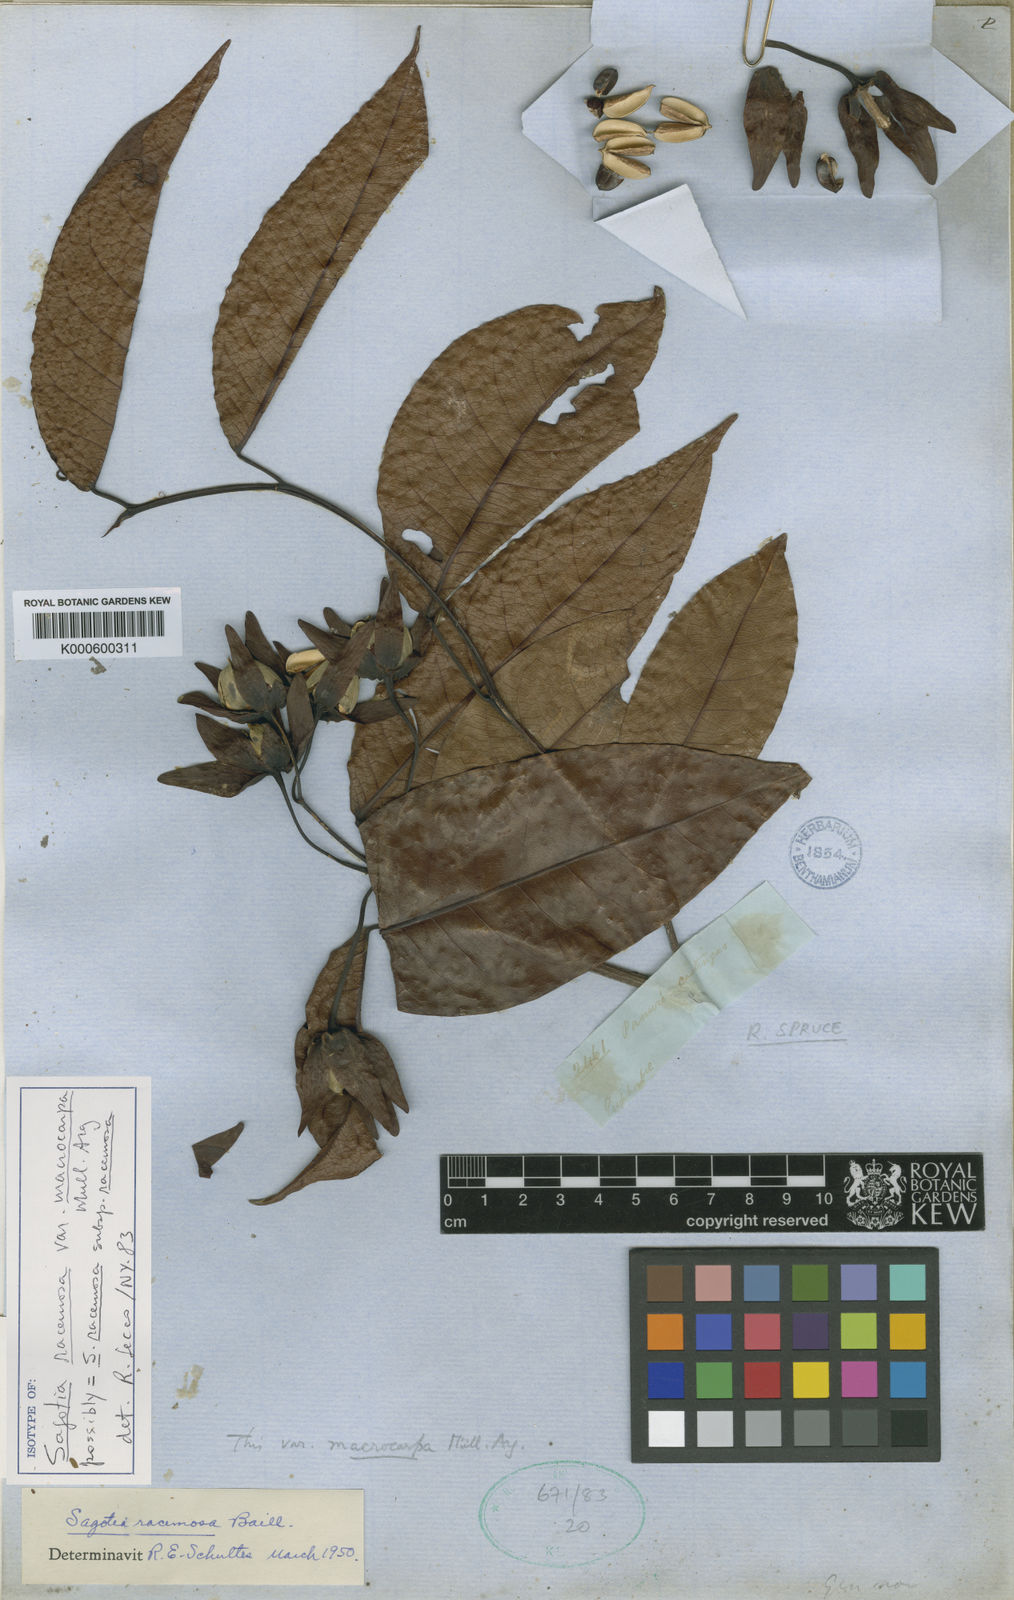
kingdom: Plantae
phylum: Tracheophyta
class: Magnoliopsida
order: Malpighiales
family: Euphorbiaceae
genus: Sagotia
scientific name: Sagotia racemosa
